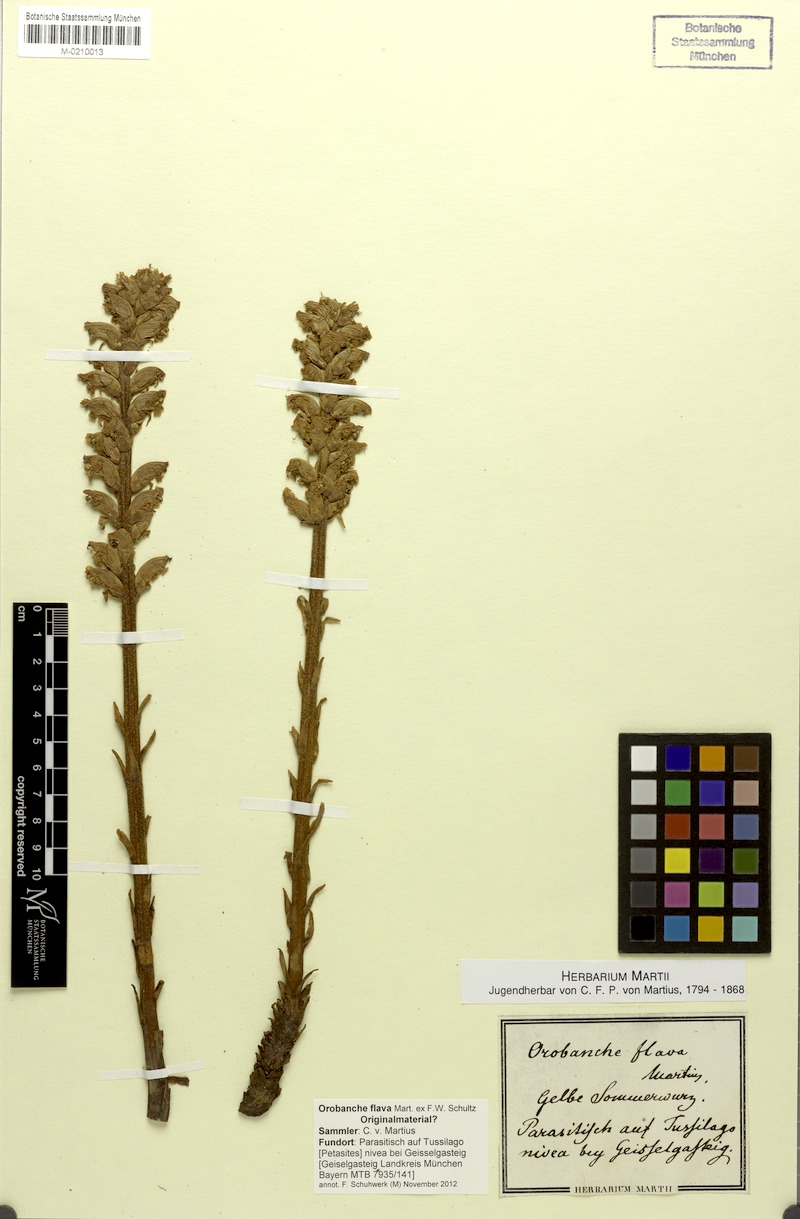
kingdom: Plantae
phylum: Tracheophyta
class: Magnoliopsida
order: Lamiales
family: Orobanchaceae
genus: Orobanche
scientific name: Orobanche flava
